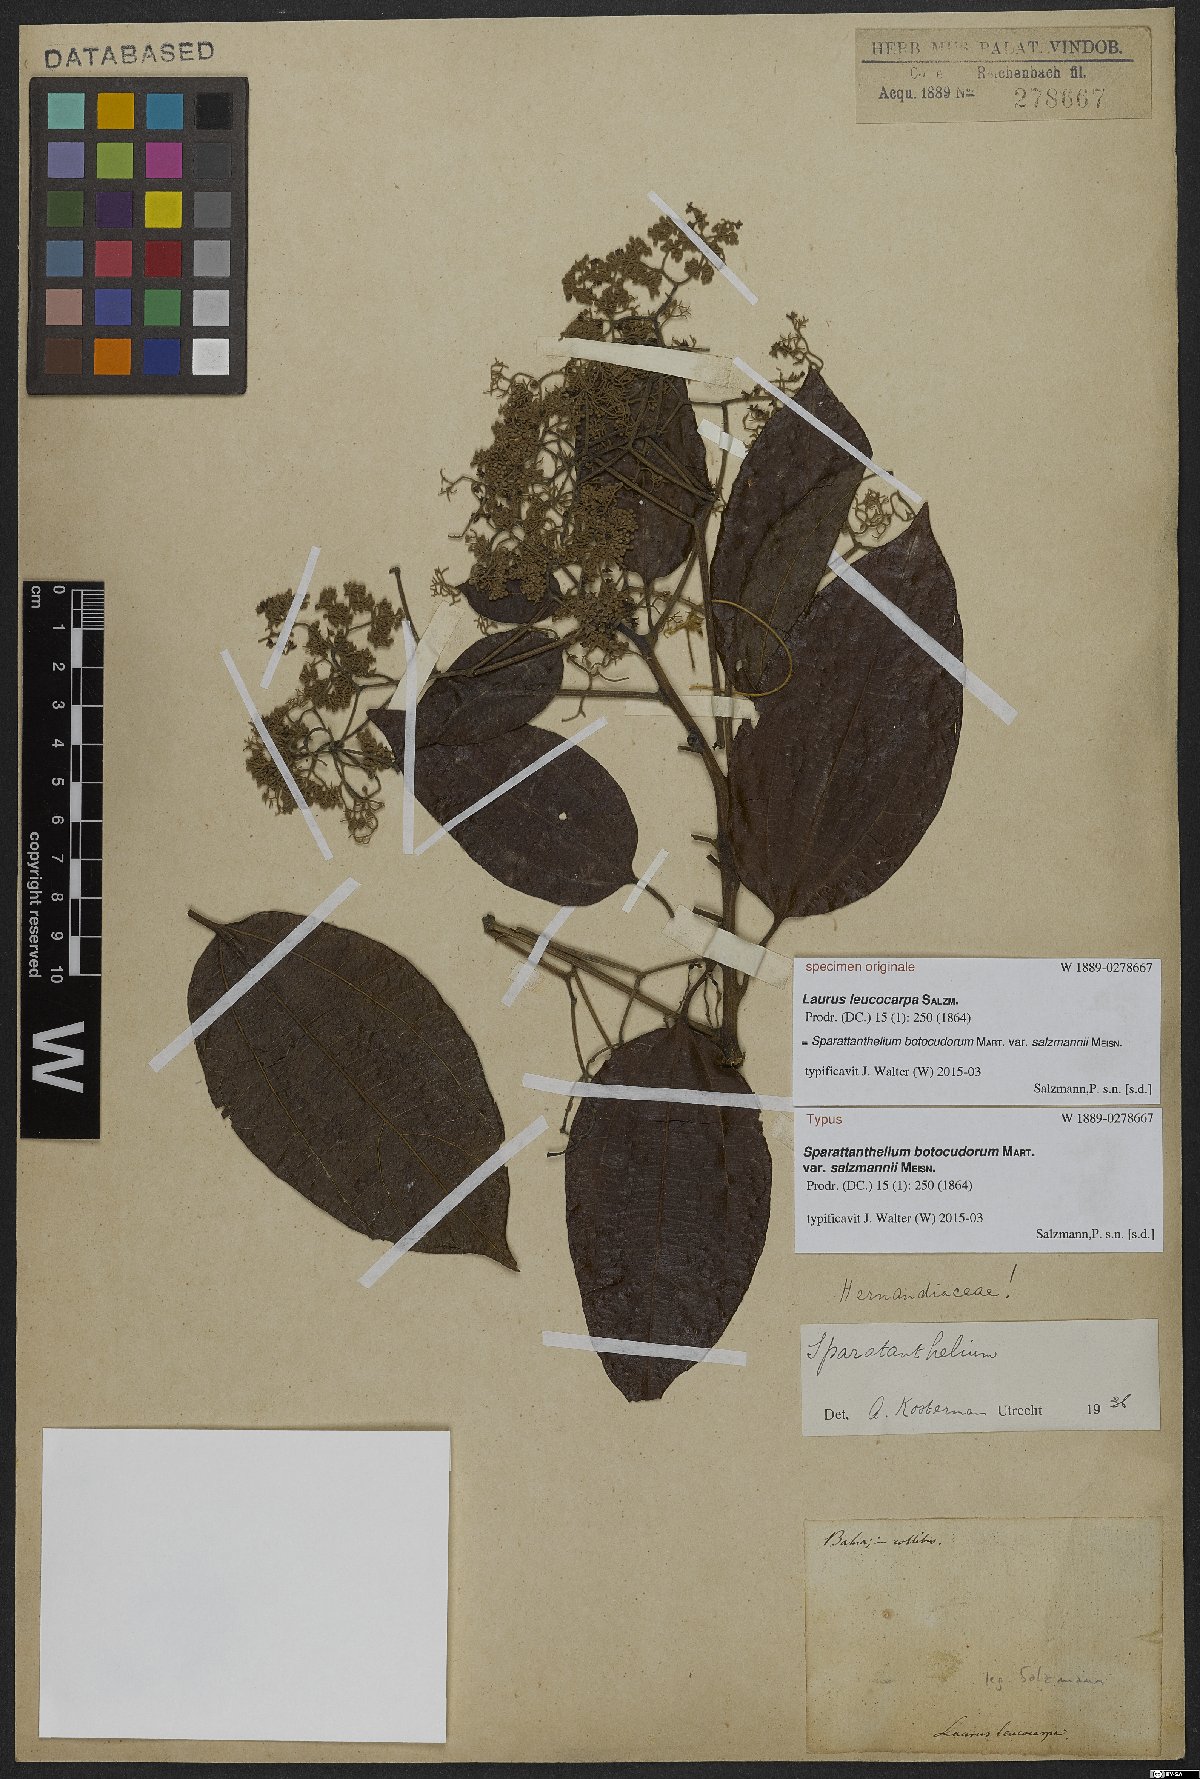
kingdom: Plantae
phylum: Tracheophyta
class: Magnoliopsida
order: Laurales
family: Hernandiaceae
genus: Sparattanthelium
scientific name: Sparattanthelium botocudorum
